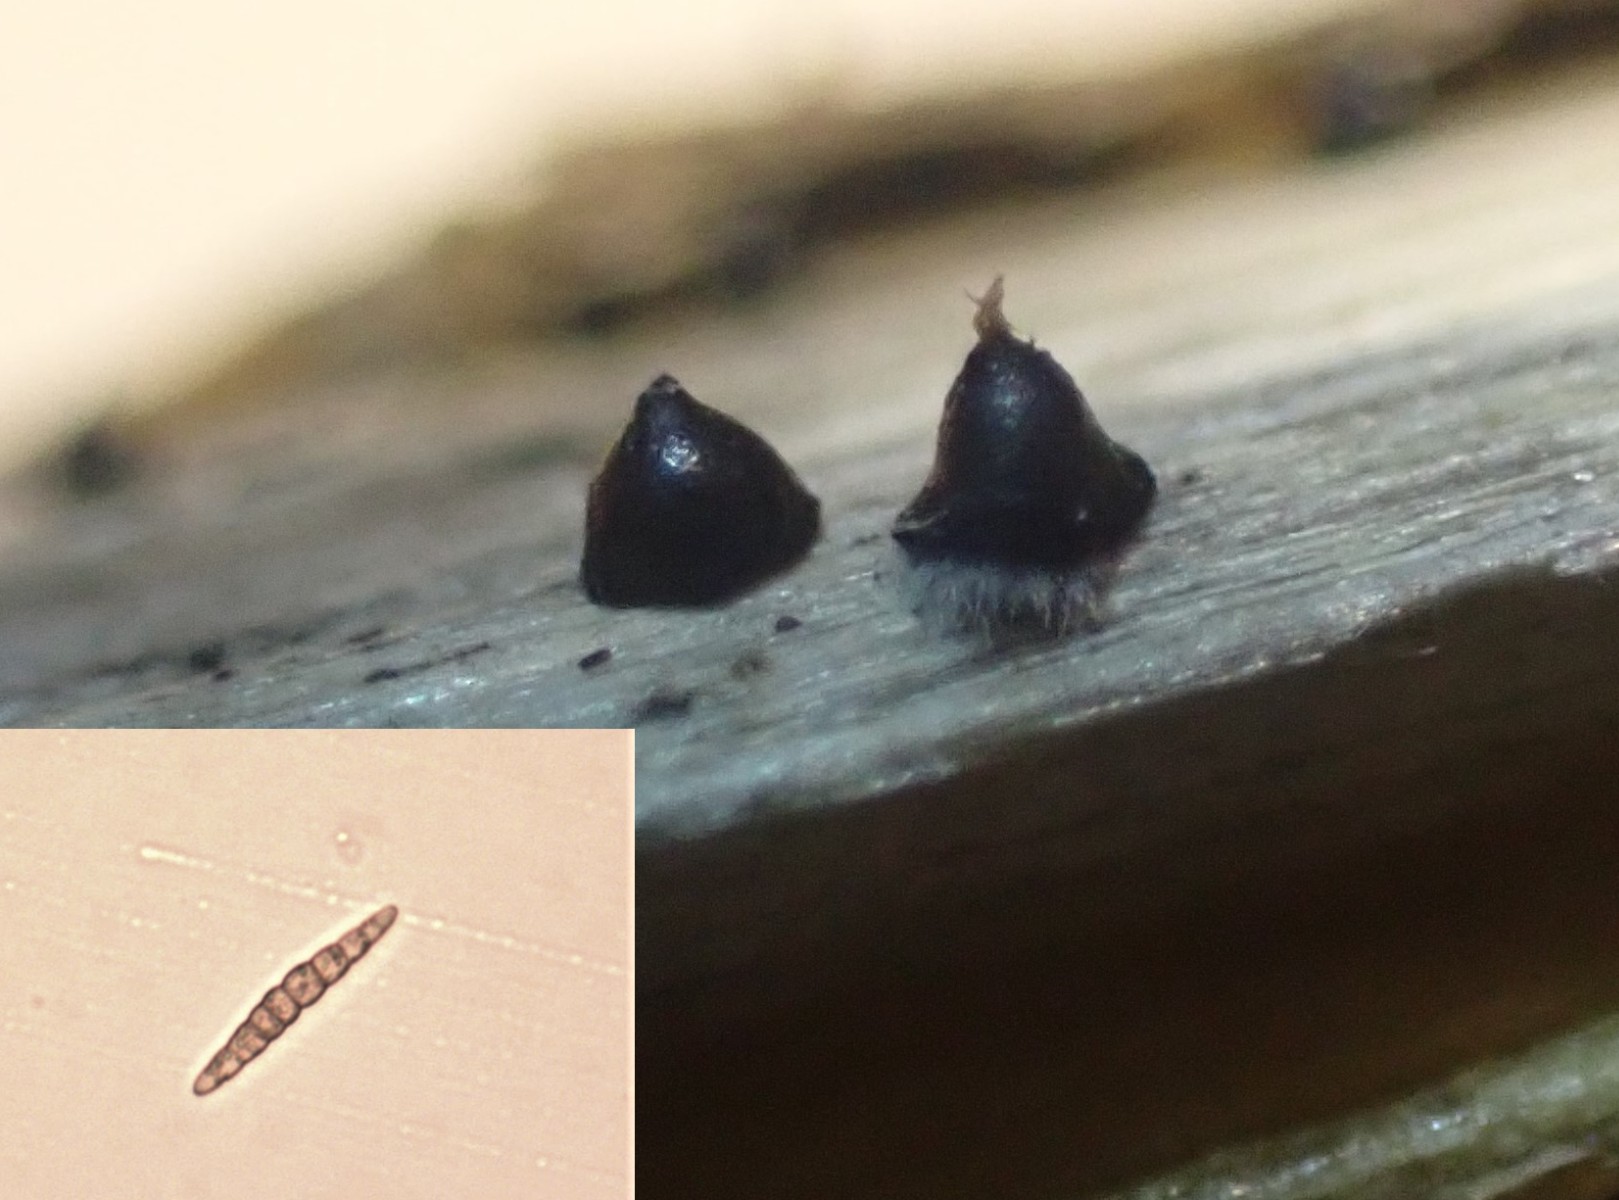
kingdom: Fungi
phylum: Ascomycota
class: Dothideomycetes
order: Pleosporales
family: Leptosphaeriaceae
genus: Leptosphaeria
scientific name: Leptosphaeria acuta
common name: spids kulkegle
